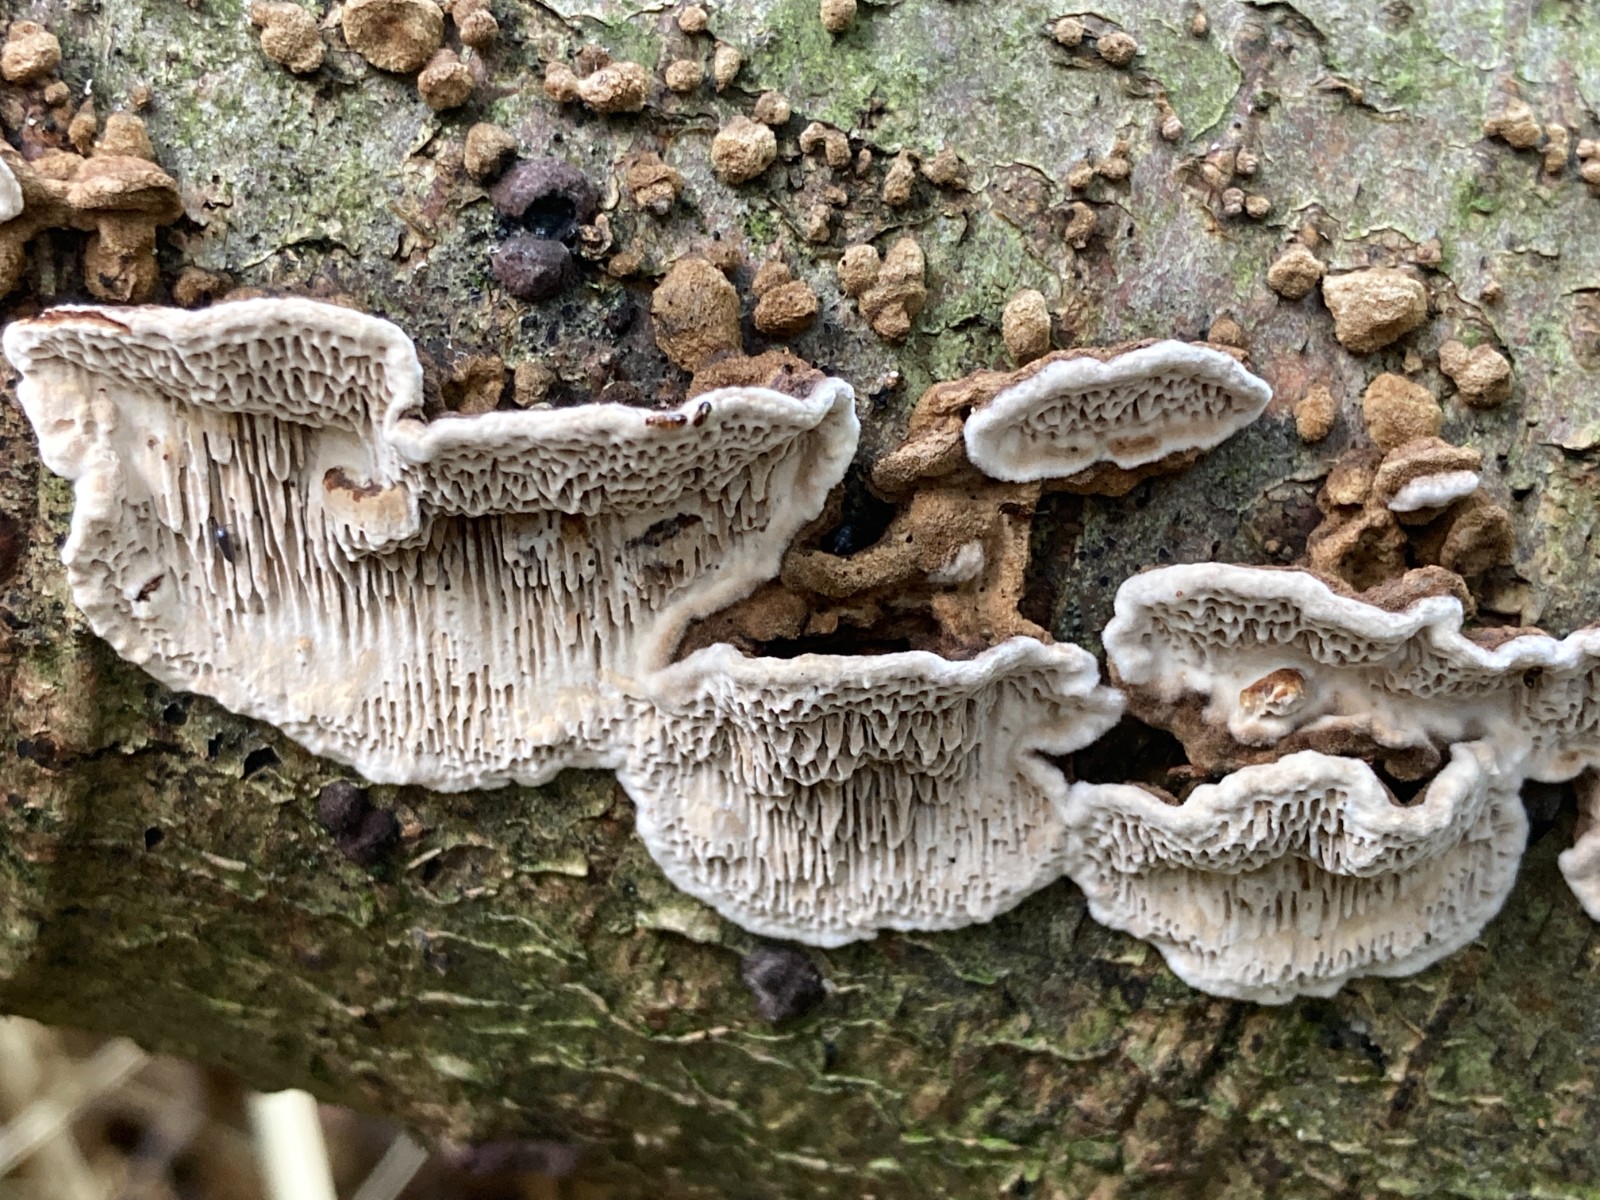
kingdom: Fungi
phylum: Basidiomycota
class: Agaricomycetes
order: Polyporales
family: Polyporaceae
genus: Podofomes
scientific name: Podofomes mollis
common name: blød begporesvamp
